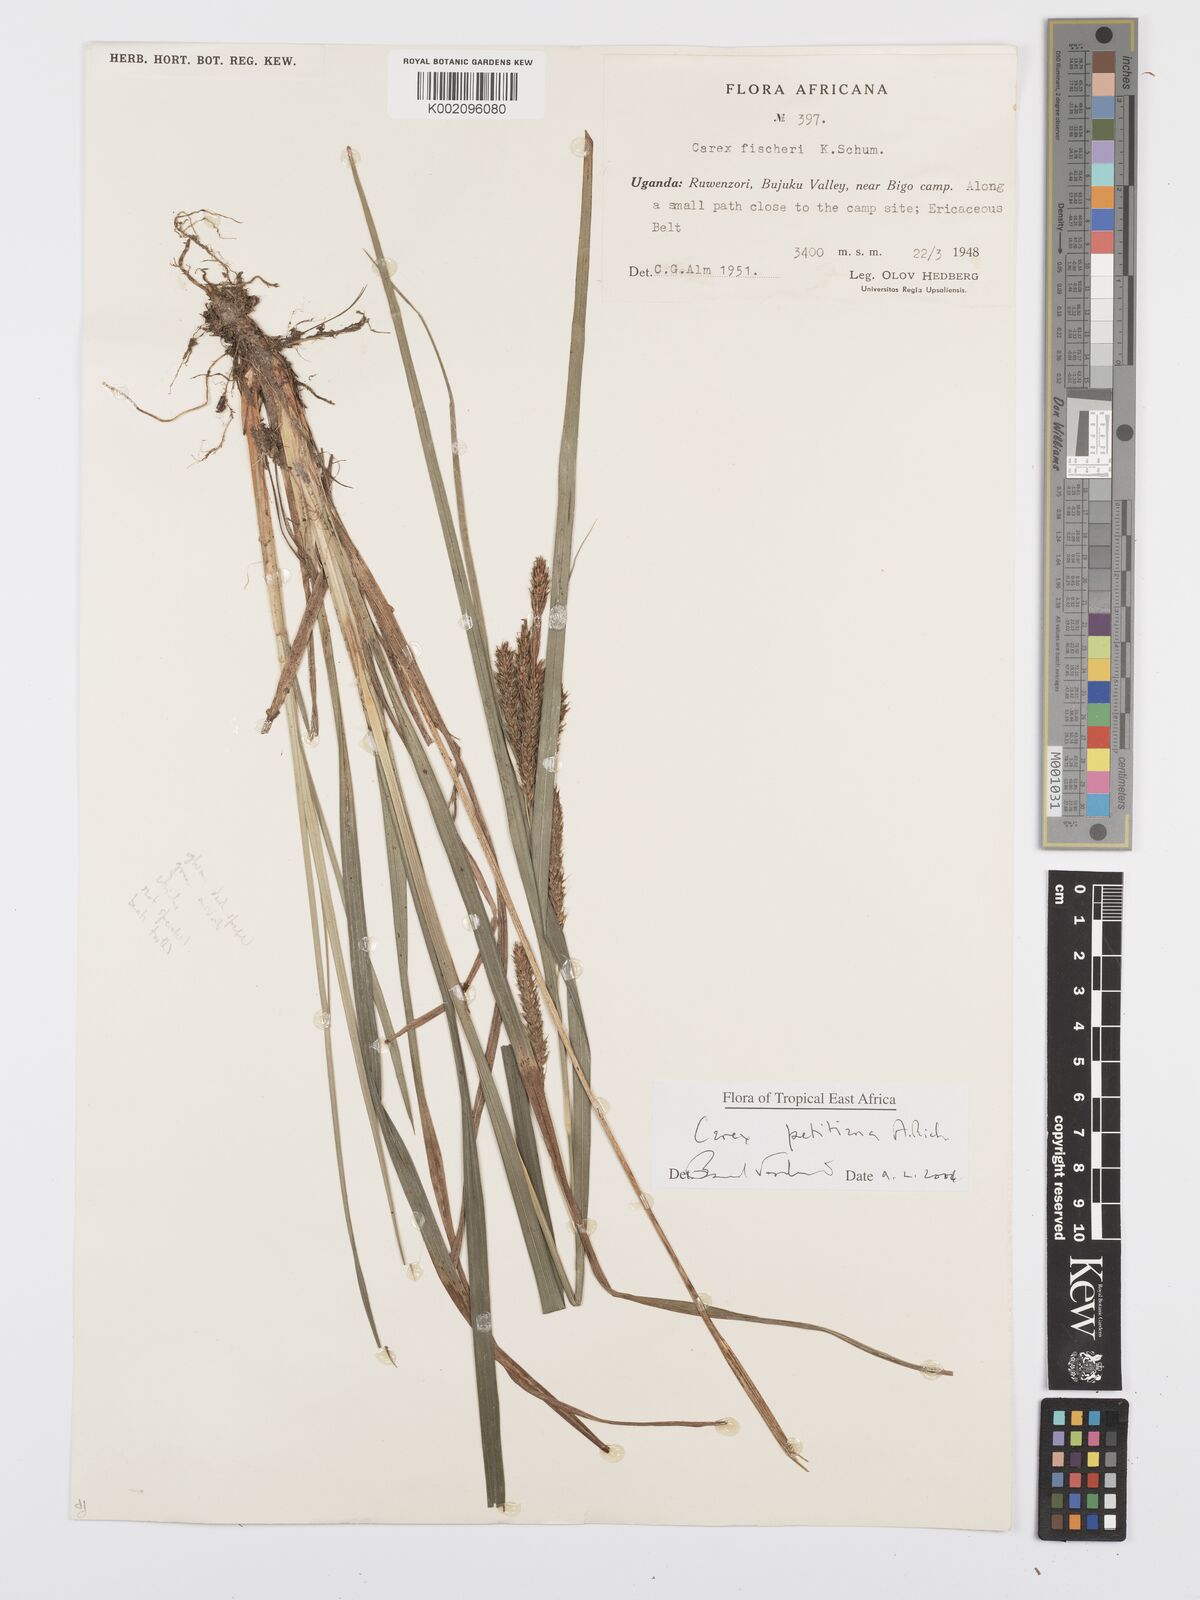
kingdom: Plantae
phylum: Tracheophyta
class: Liliopsida
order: Poales
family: Cyperaceae
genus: Carex
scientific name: Carex fischeri
